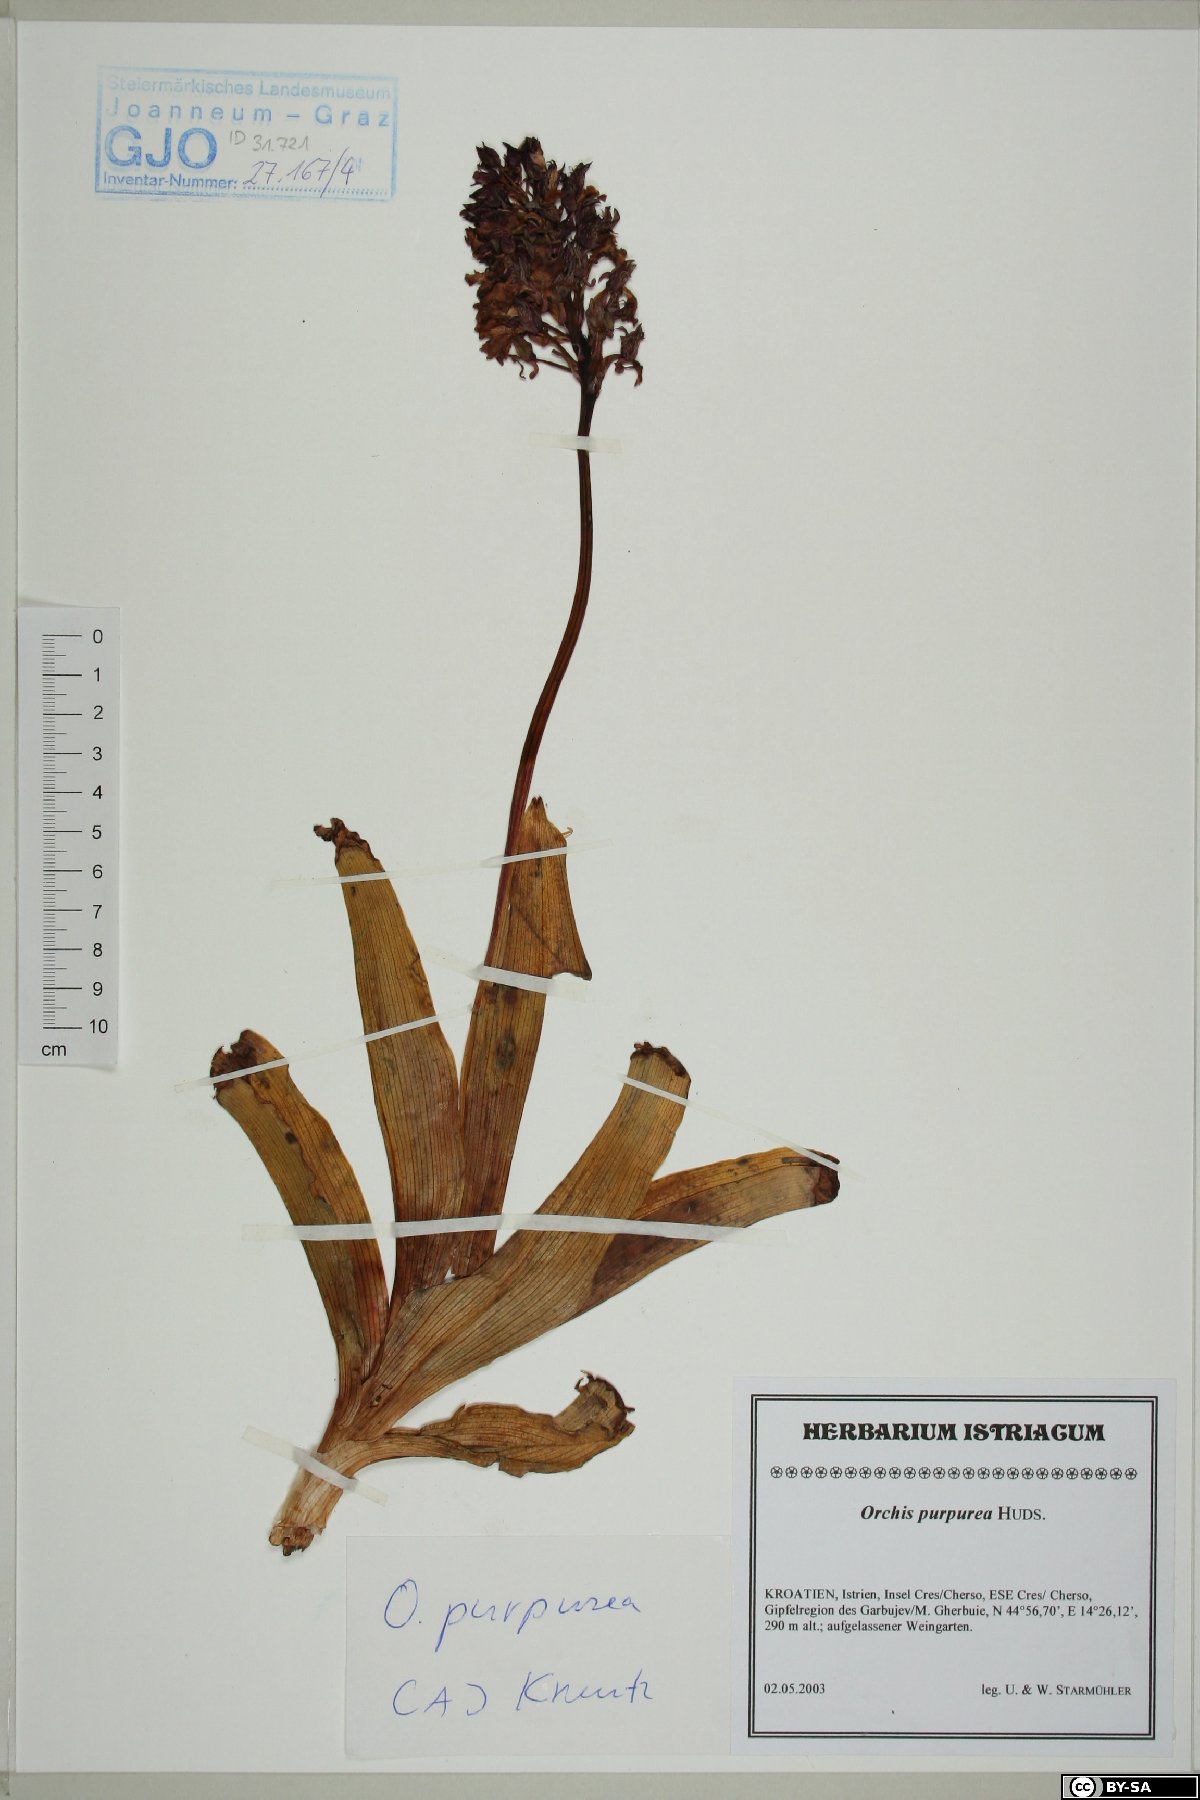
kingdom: Plantae
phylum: Tracheophyta
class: Liliopsida
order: Asparagales
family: Orchidaceae
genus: Orchis
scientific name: Orchis purpurea
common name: Lady orchid
